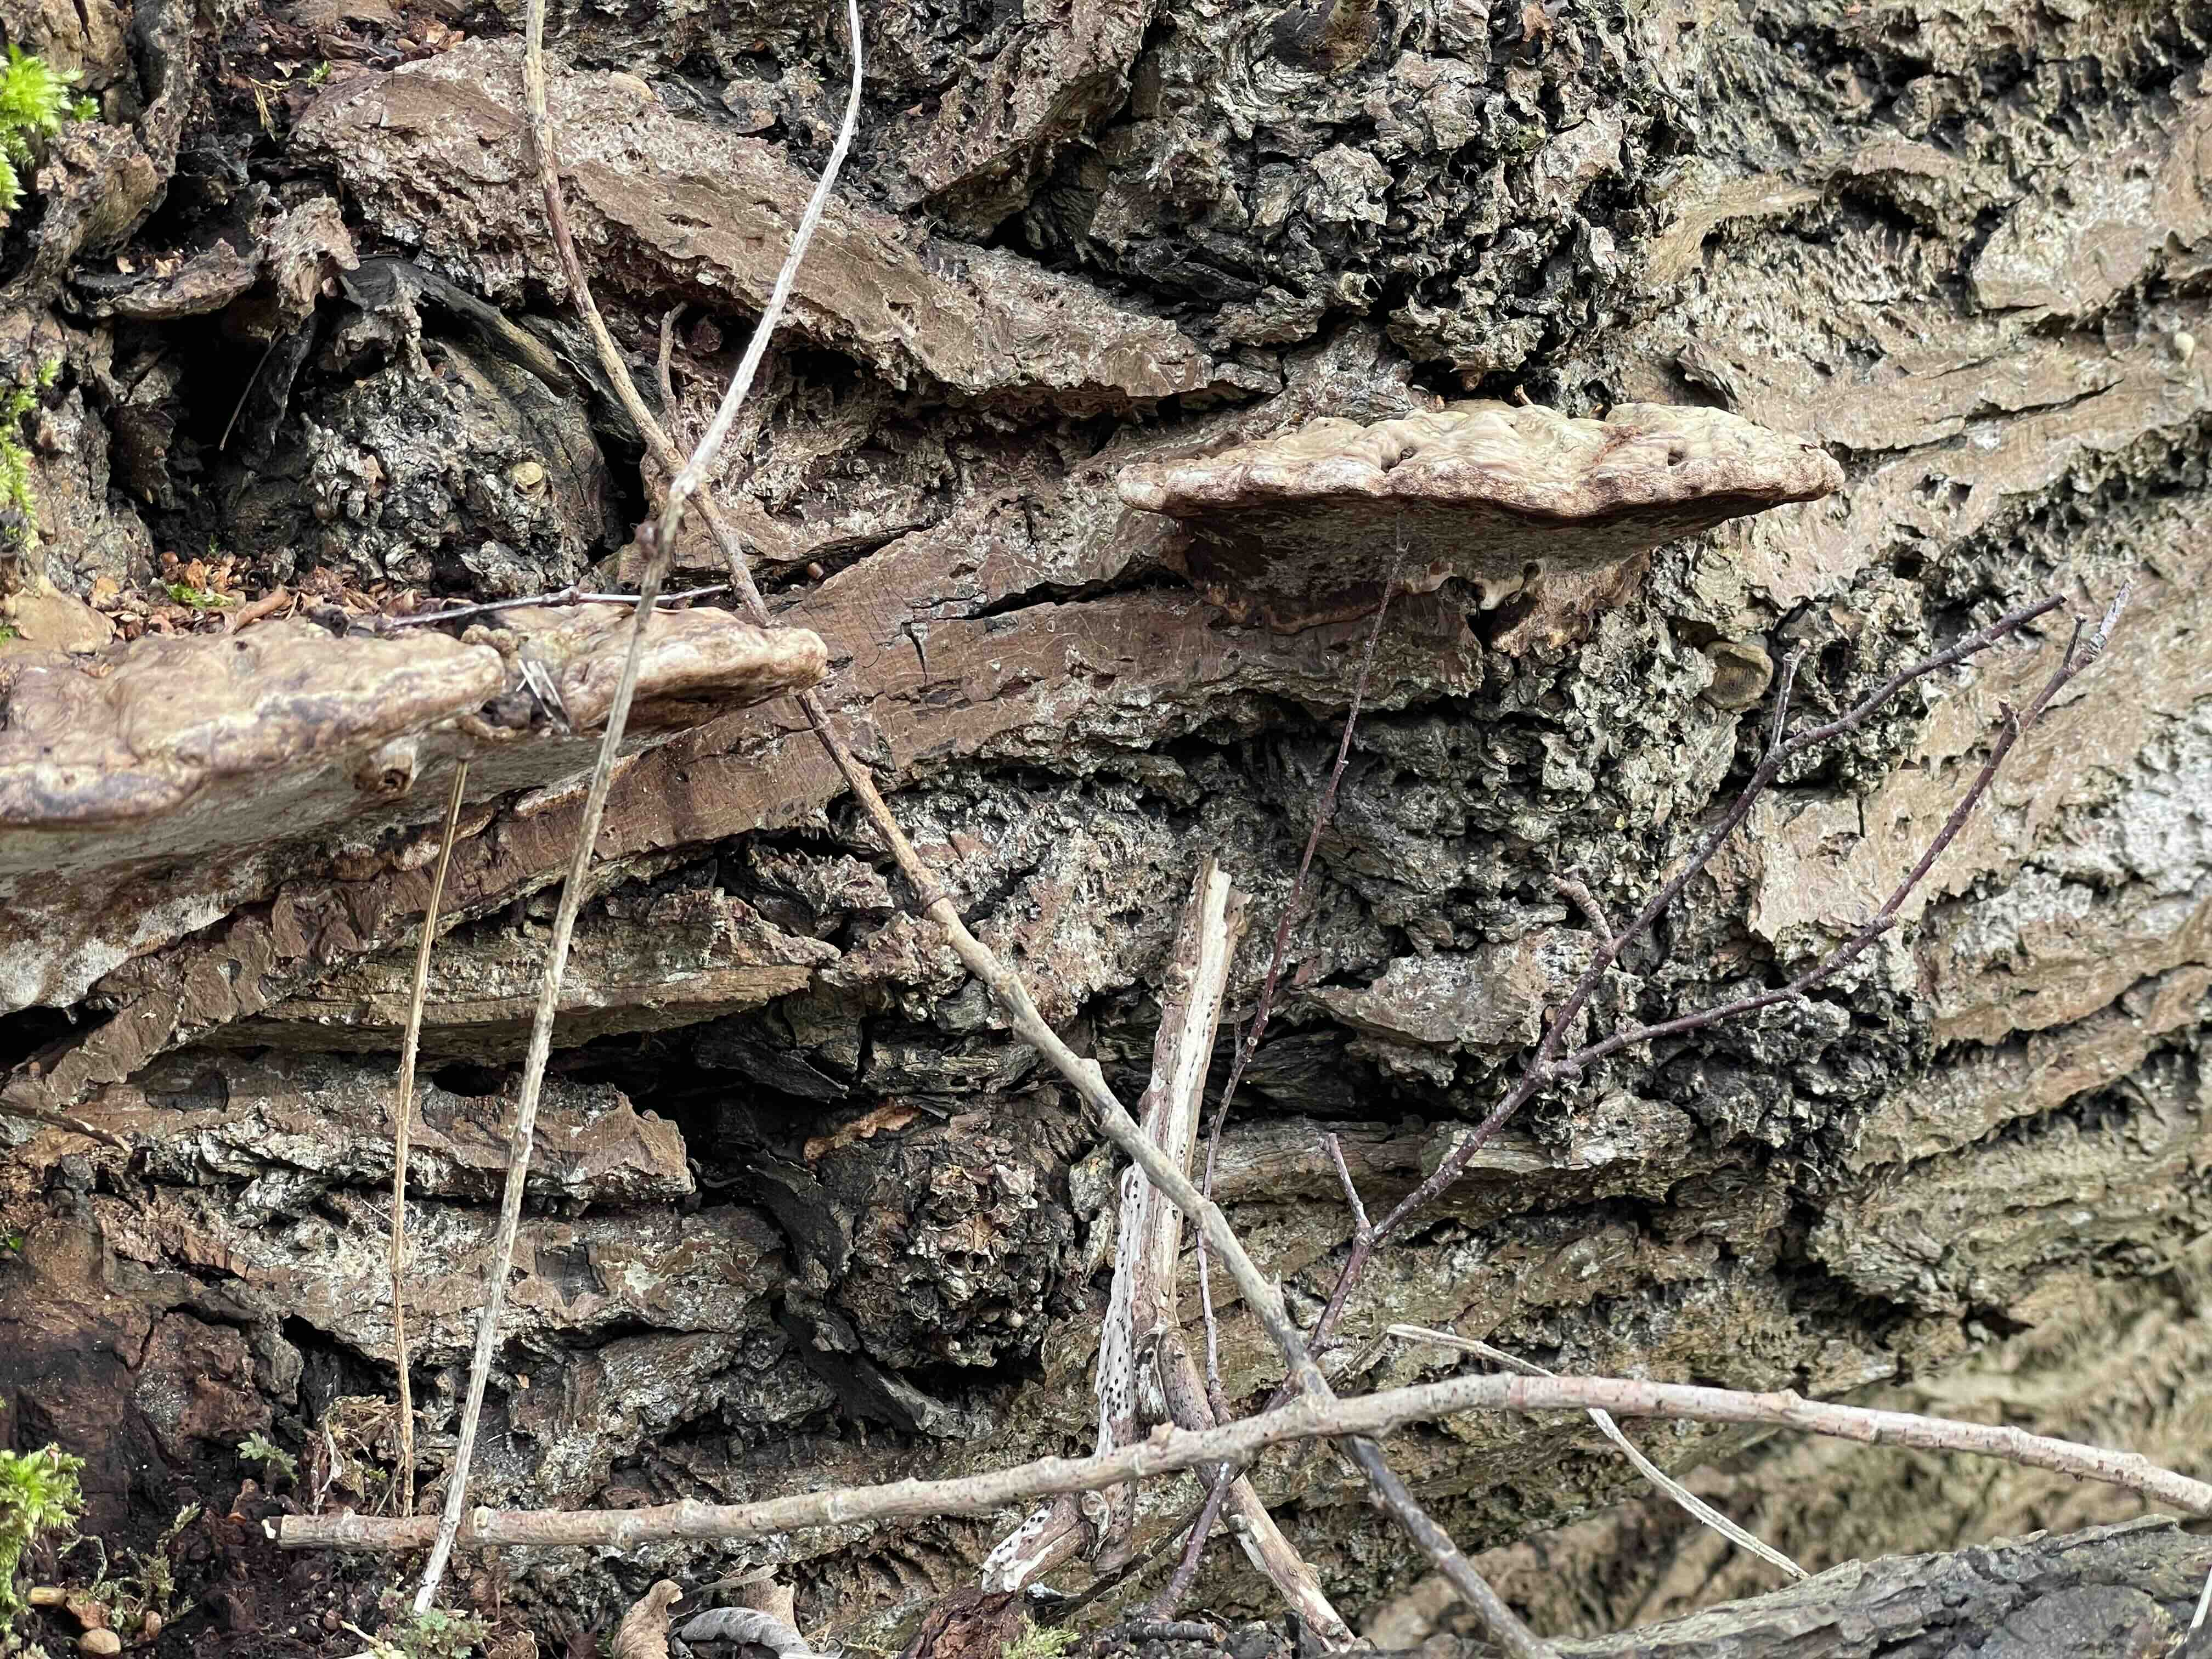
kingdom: Fungi
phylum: Basidiomycota
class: Agaricomycetes
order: Polyporales
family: Polyporaceae
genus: Ganoderma
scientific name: Ganoderma applanatum
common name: flad lakporesvamp
